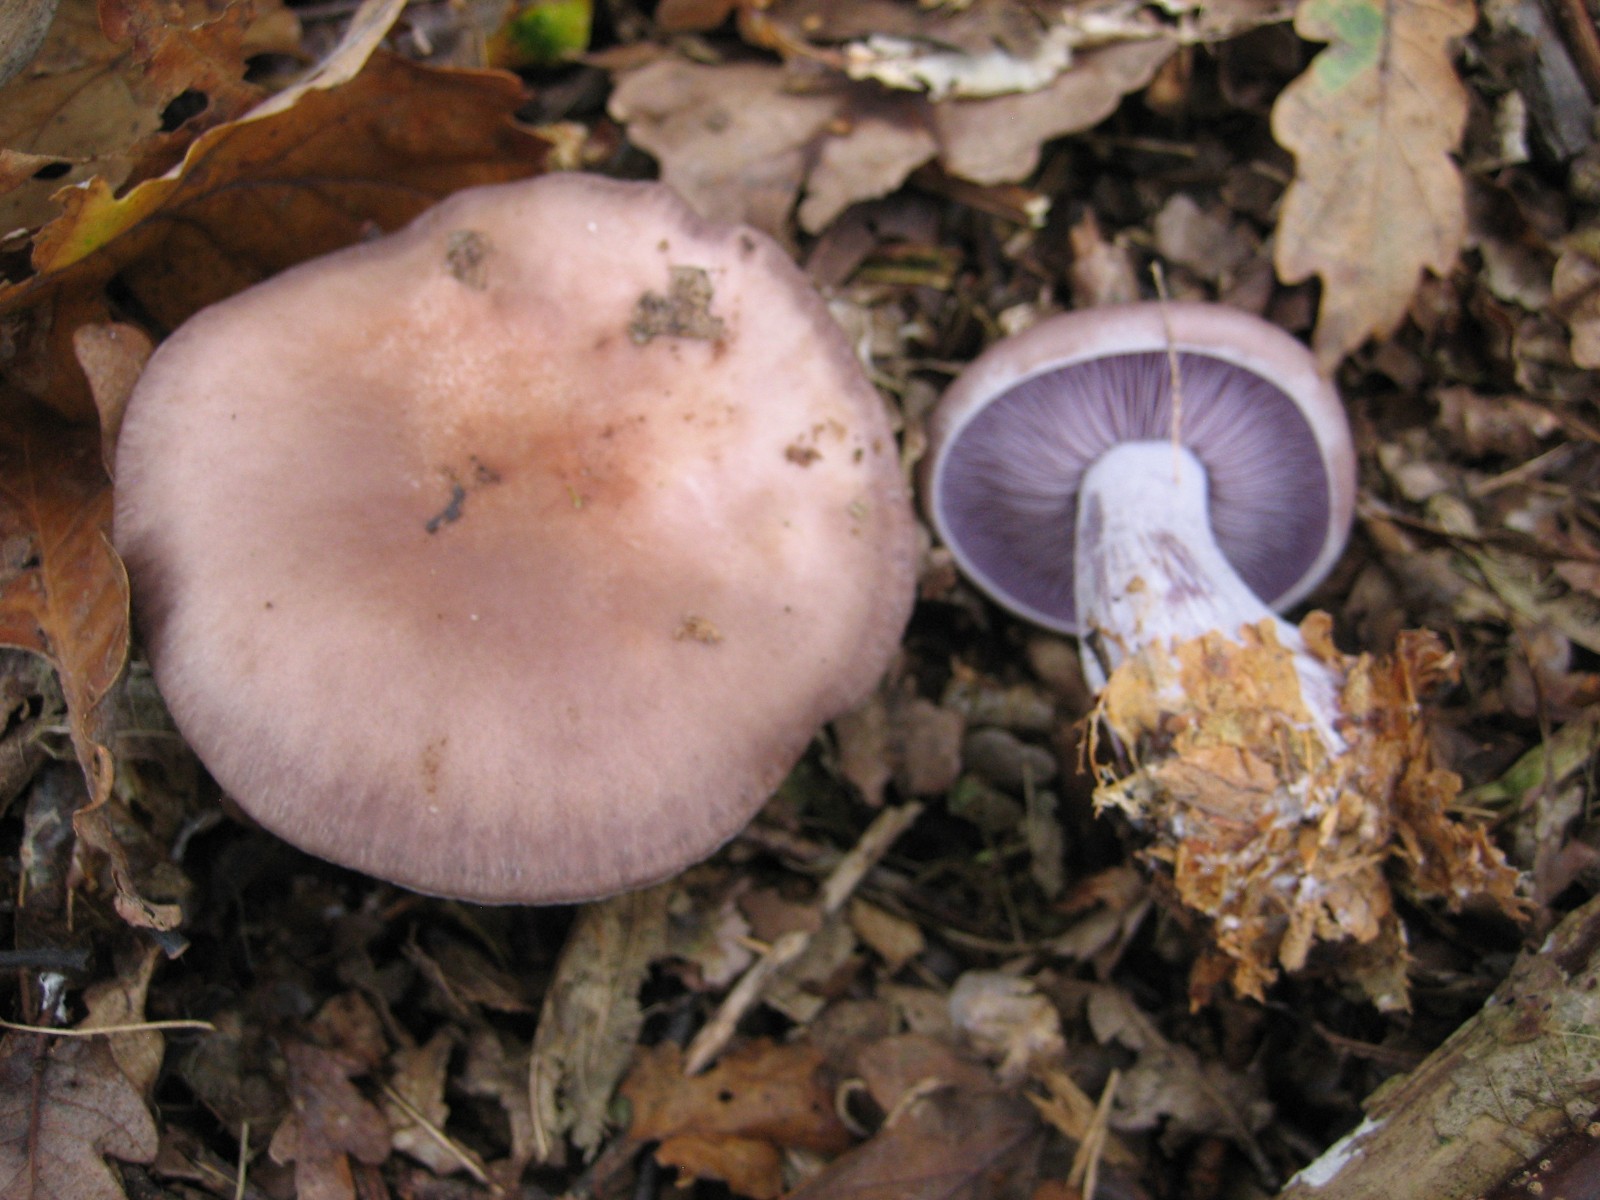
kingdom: Fungi
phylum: Basidiomycota
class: Agaricomycetes
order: Agaricales
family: Tricholomataceae
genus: Lepista
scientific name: Lepista nuda
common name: violet hekseringshat
